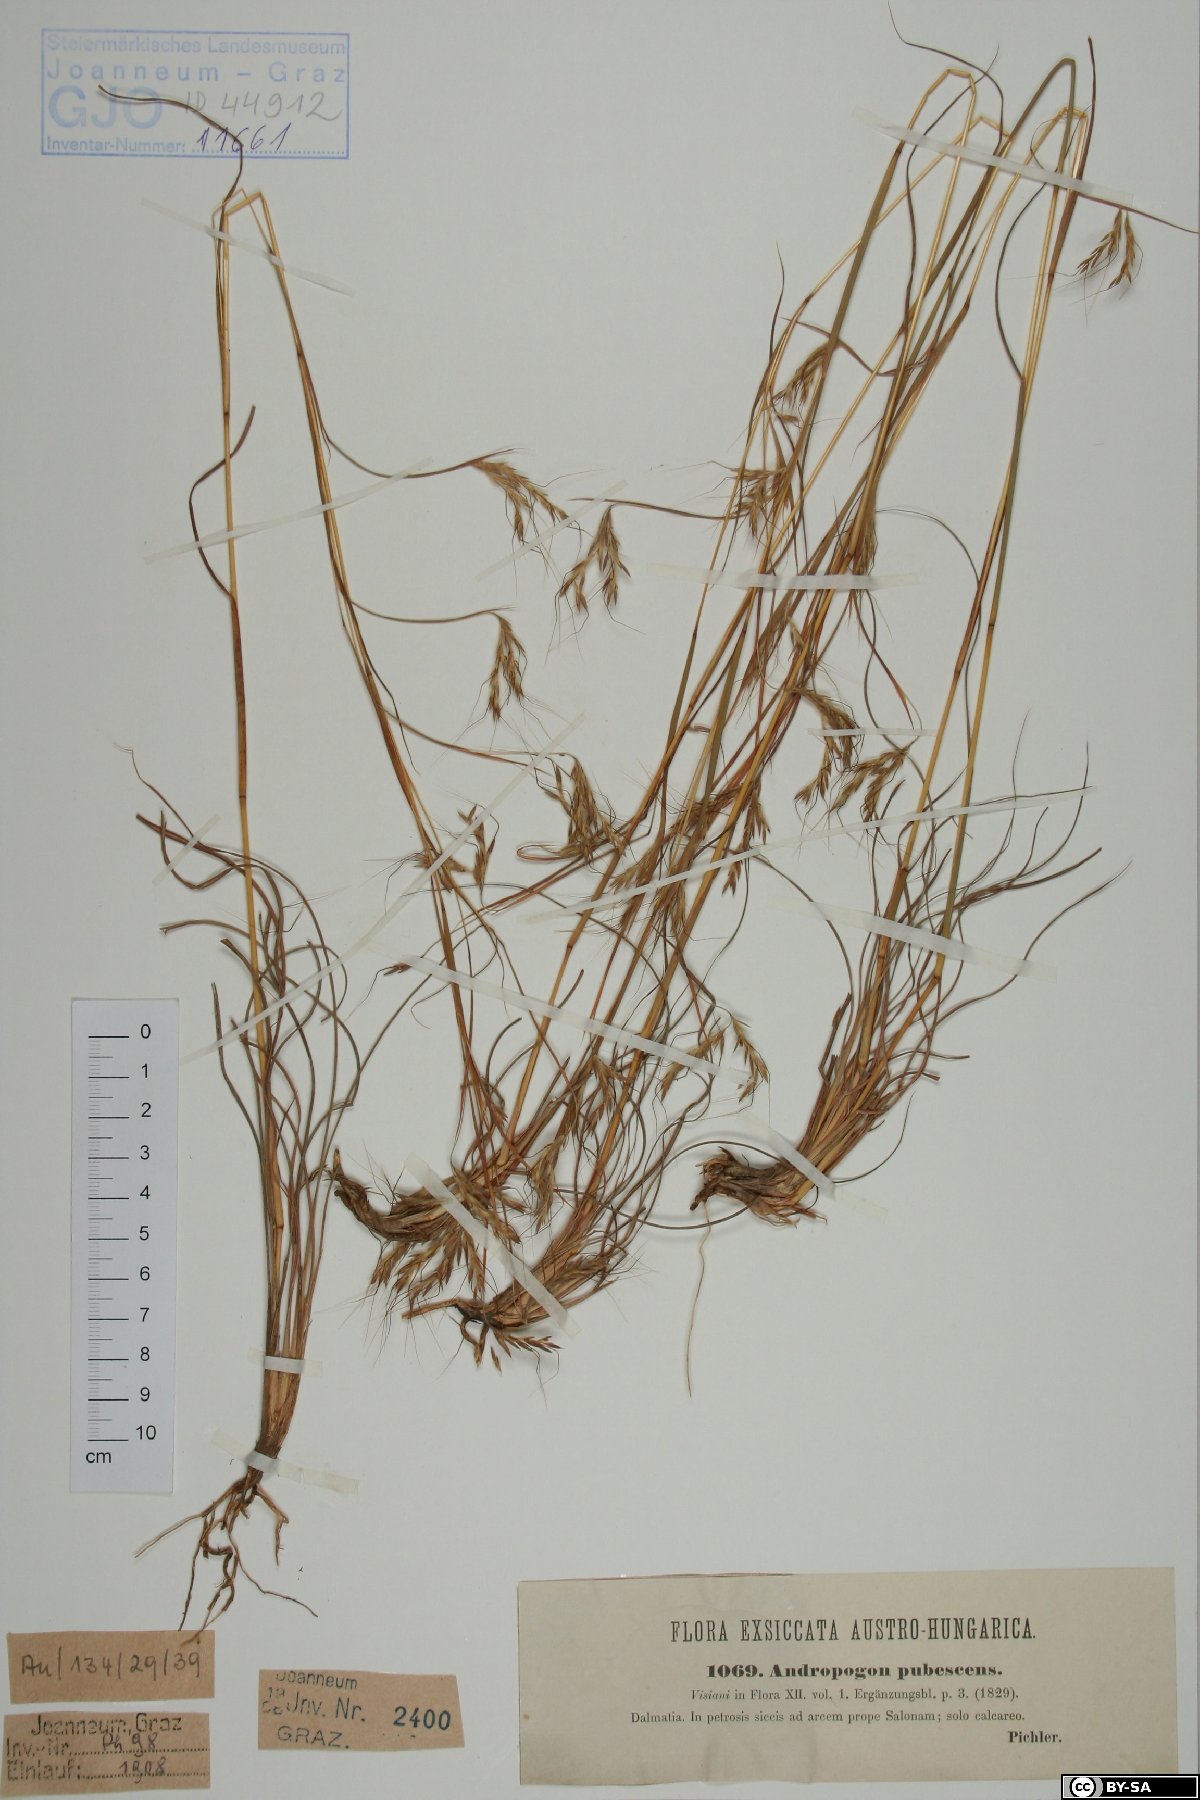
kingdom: Plantae
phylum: Tracheophyta
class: Liliopsida
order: Poales
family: Poaceae
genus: Hyparrhenia
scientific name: Hyparrhenia hirta
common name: Thatching grass
